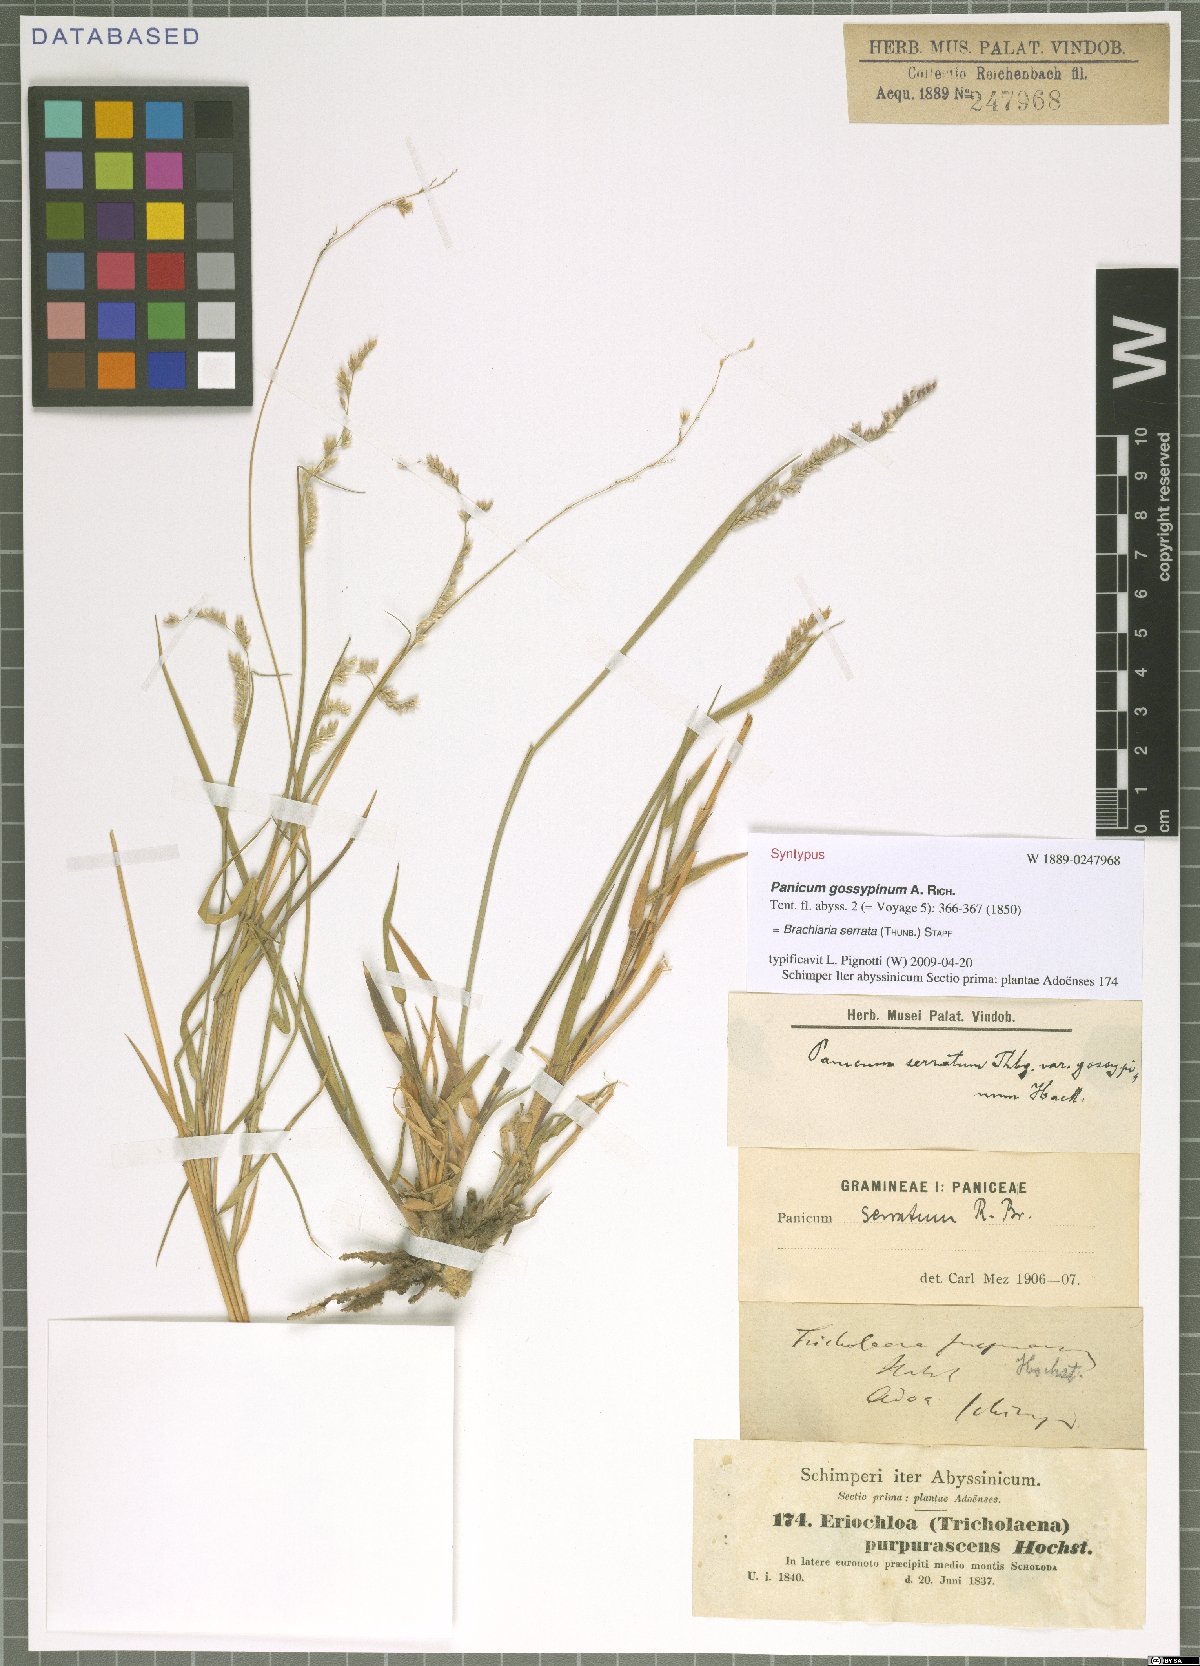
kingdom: Plantae
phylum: Tracheophyta
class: Liliopsida
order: Poales
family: Poaceae
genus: Urochloa
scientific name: Urochloa serrata
